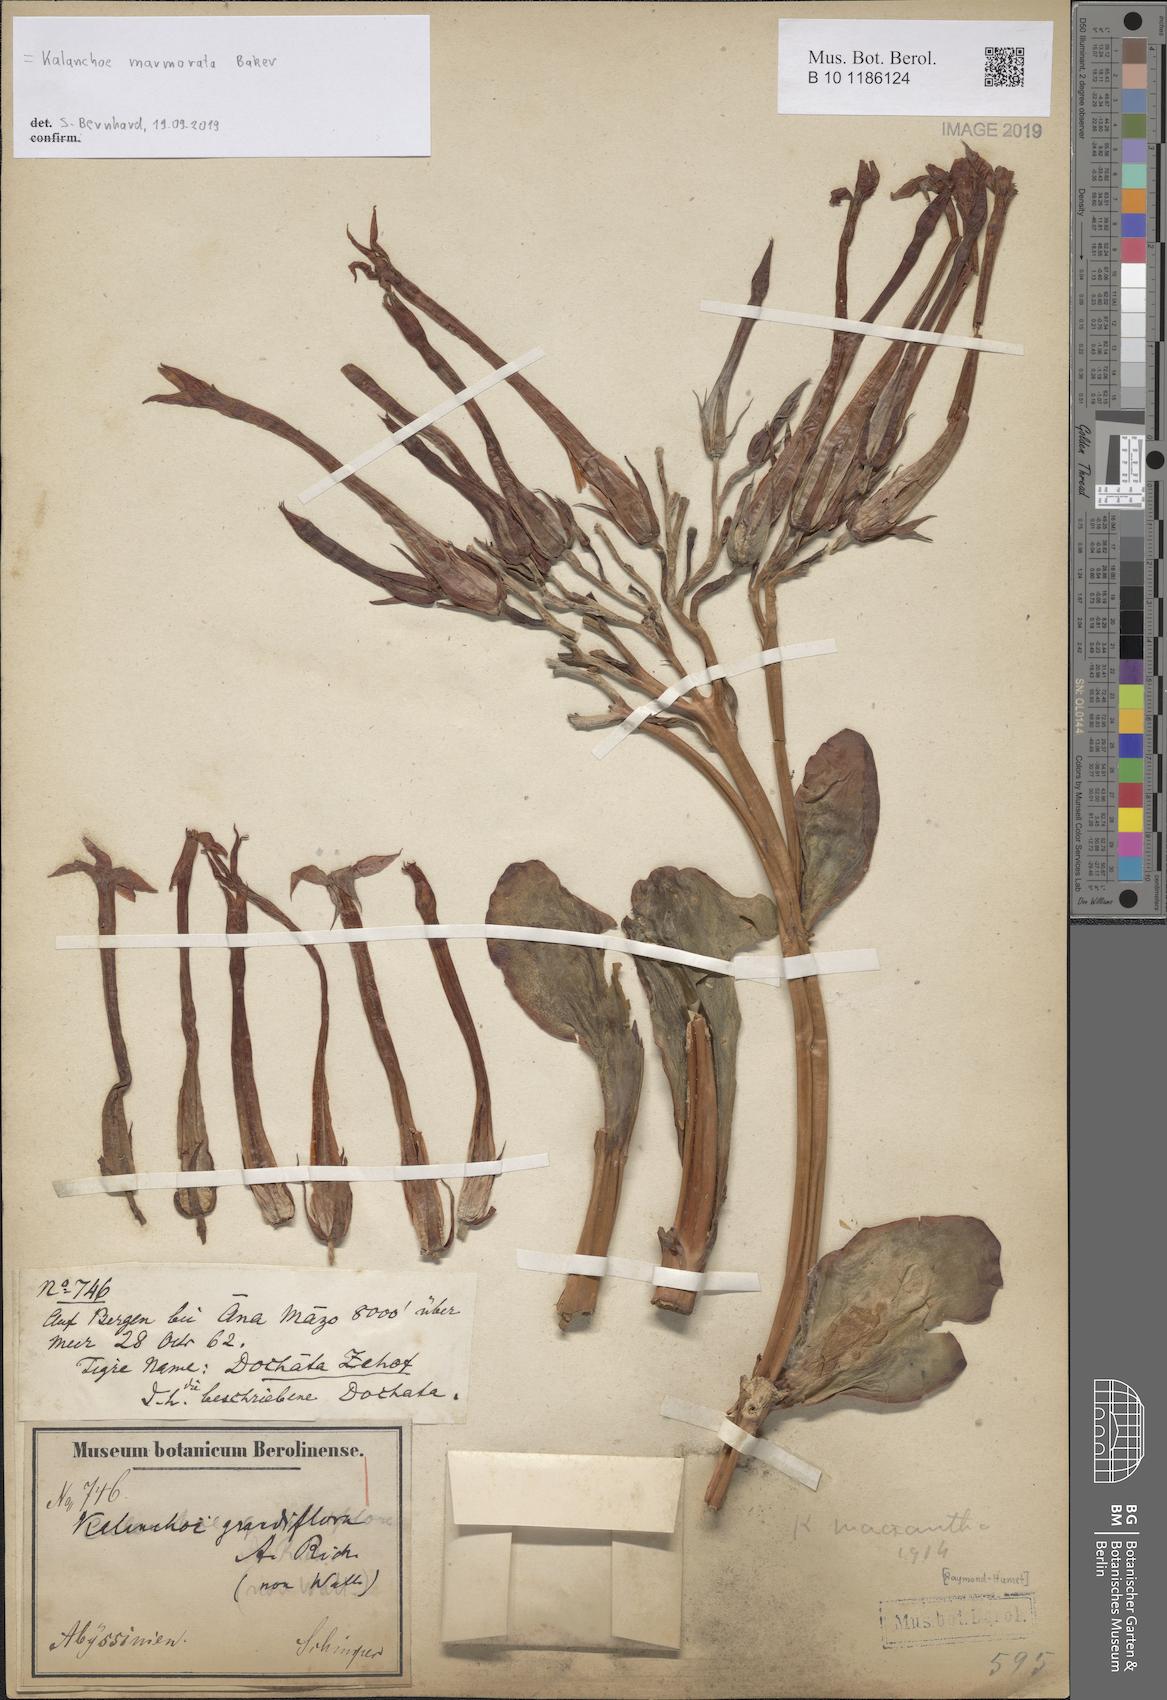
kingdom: Plantae
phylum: Tracheophyta
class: Magnoliopsida
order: Saxifragales
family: Crassulaceae
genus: Kalanchoe
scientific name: Kalanchoe marmorata
